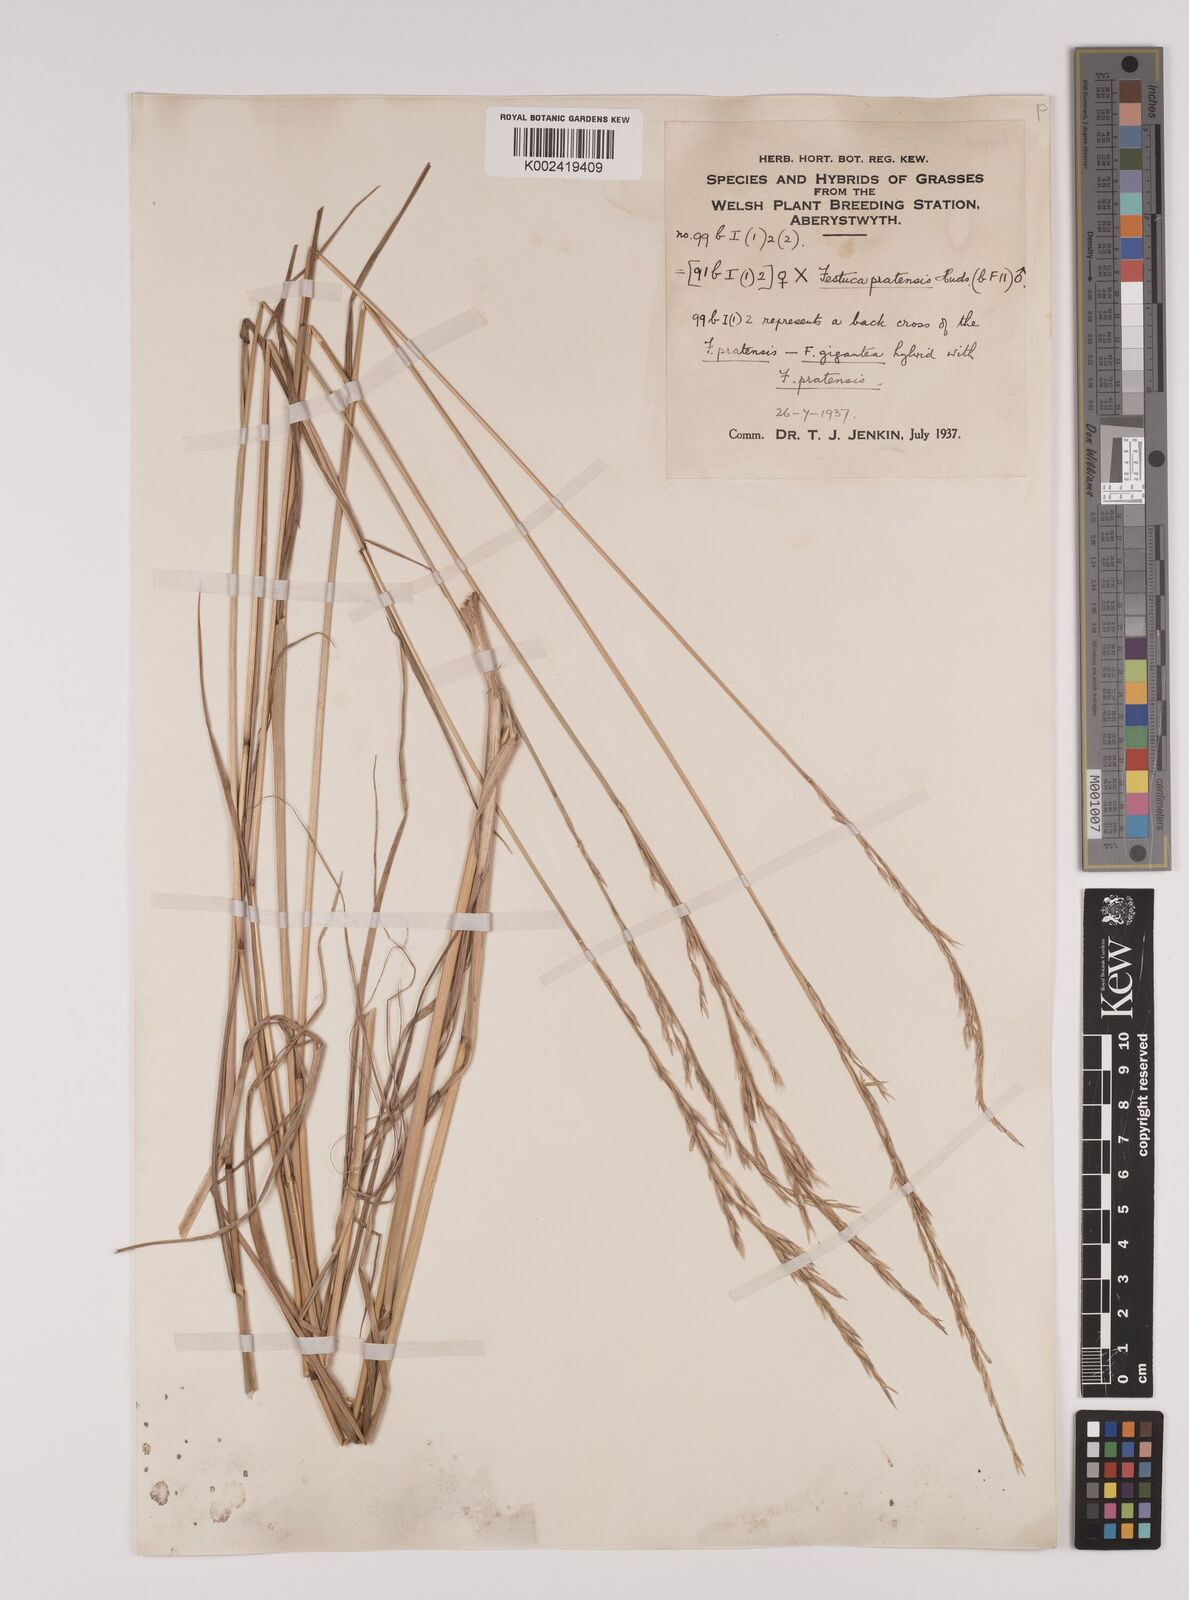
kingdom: Plantae
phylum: Tracheophyta
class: Liliopsida
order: Poales
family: Poaceae
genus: Lolium
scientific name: Lolium giganteum
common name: Giant fescue
